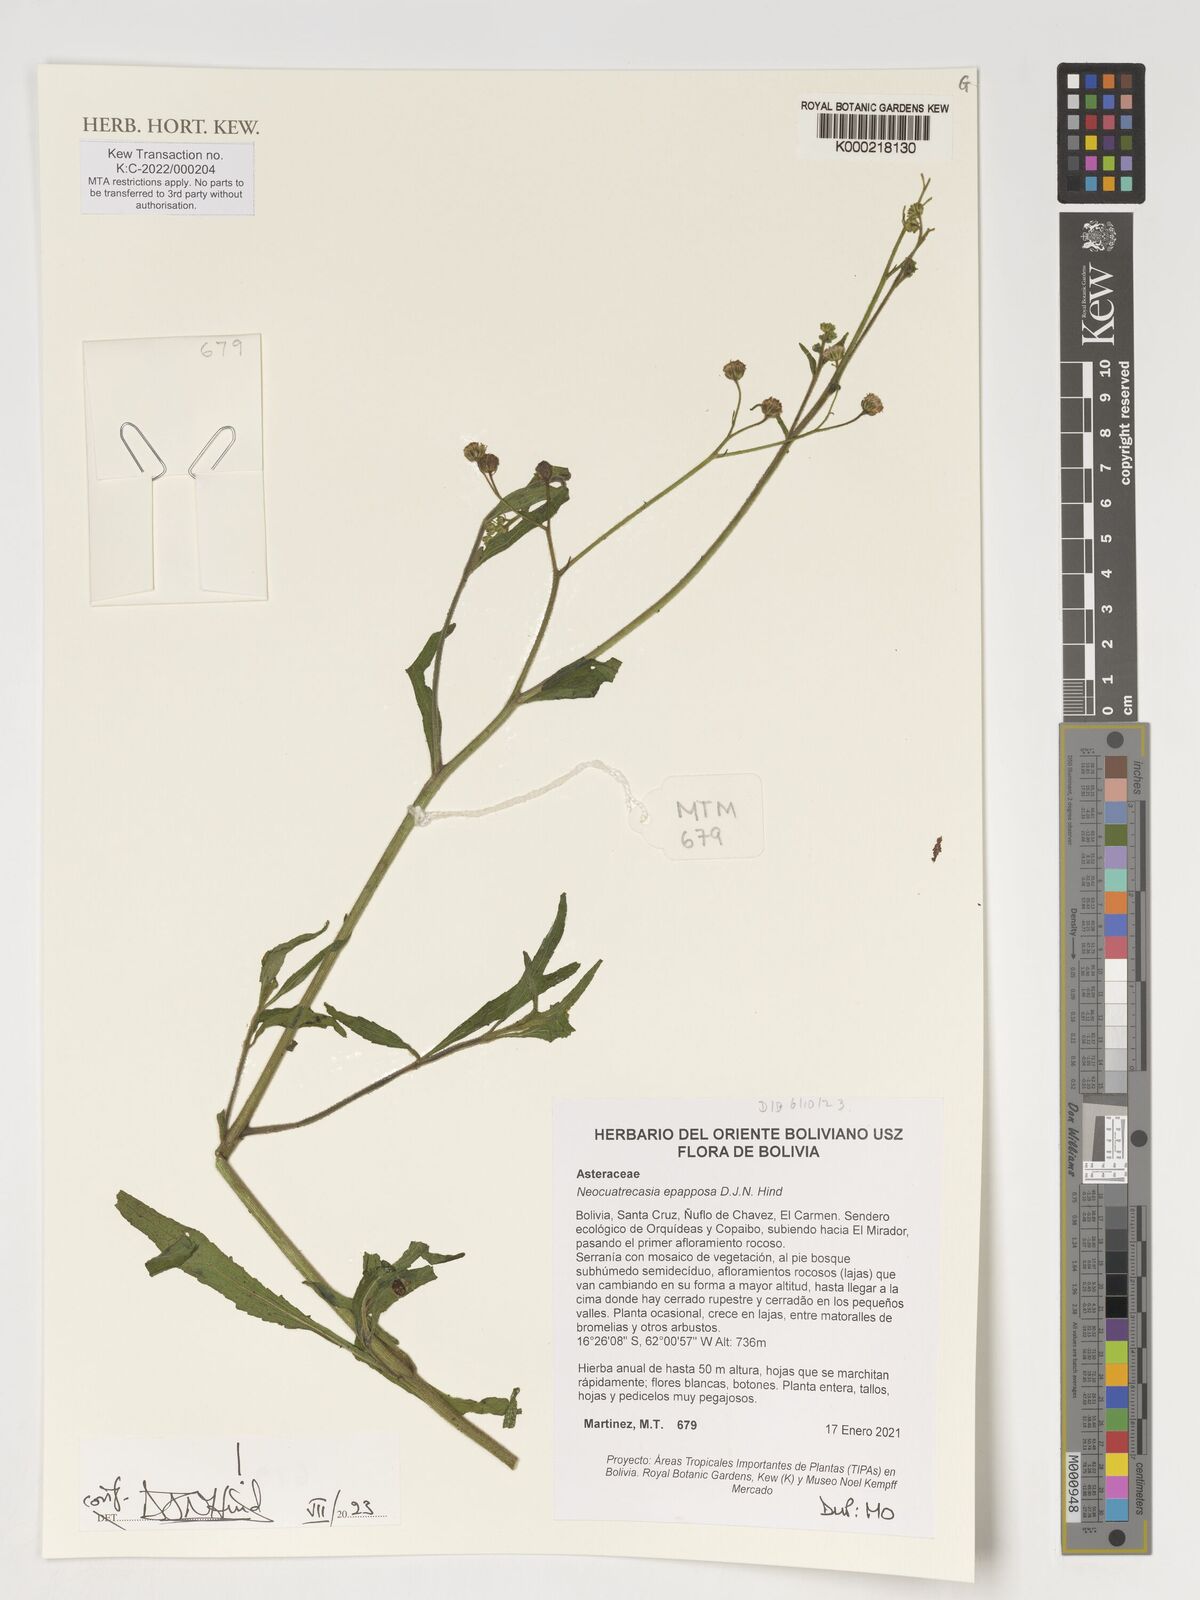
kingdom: Plantae
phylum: Tracheophyta
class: Magnoliopsida
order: Asterales
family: Asteraceae
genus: Neocuatrecasia
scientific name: Neocuatrecasia epapposa
